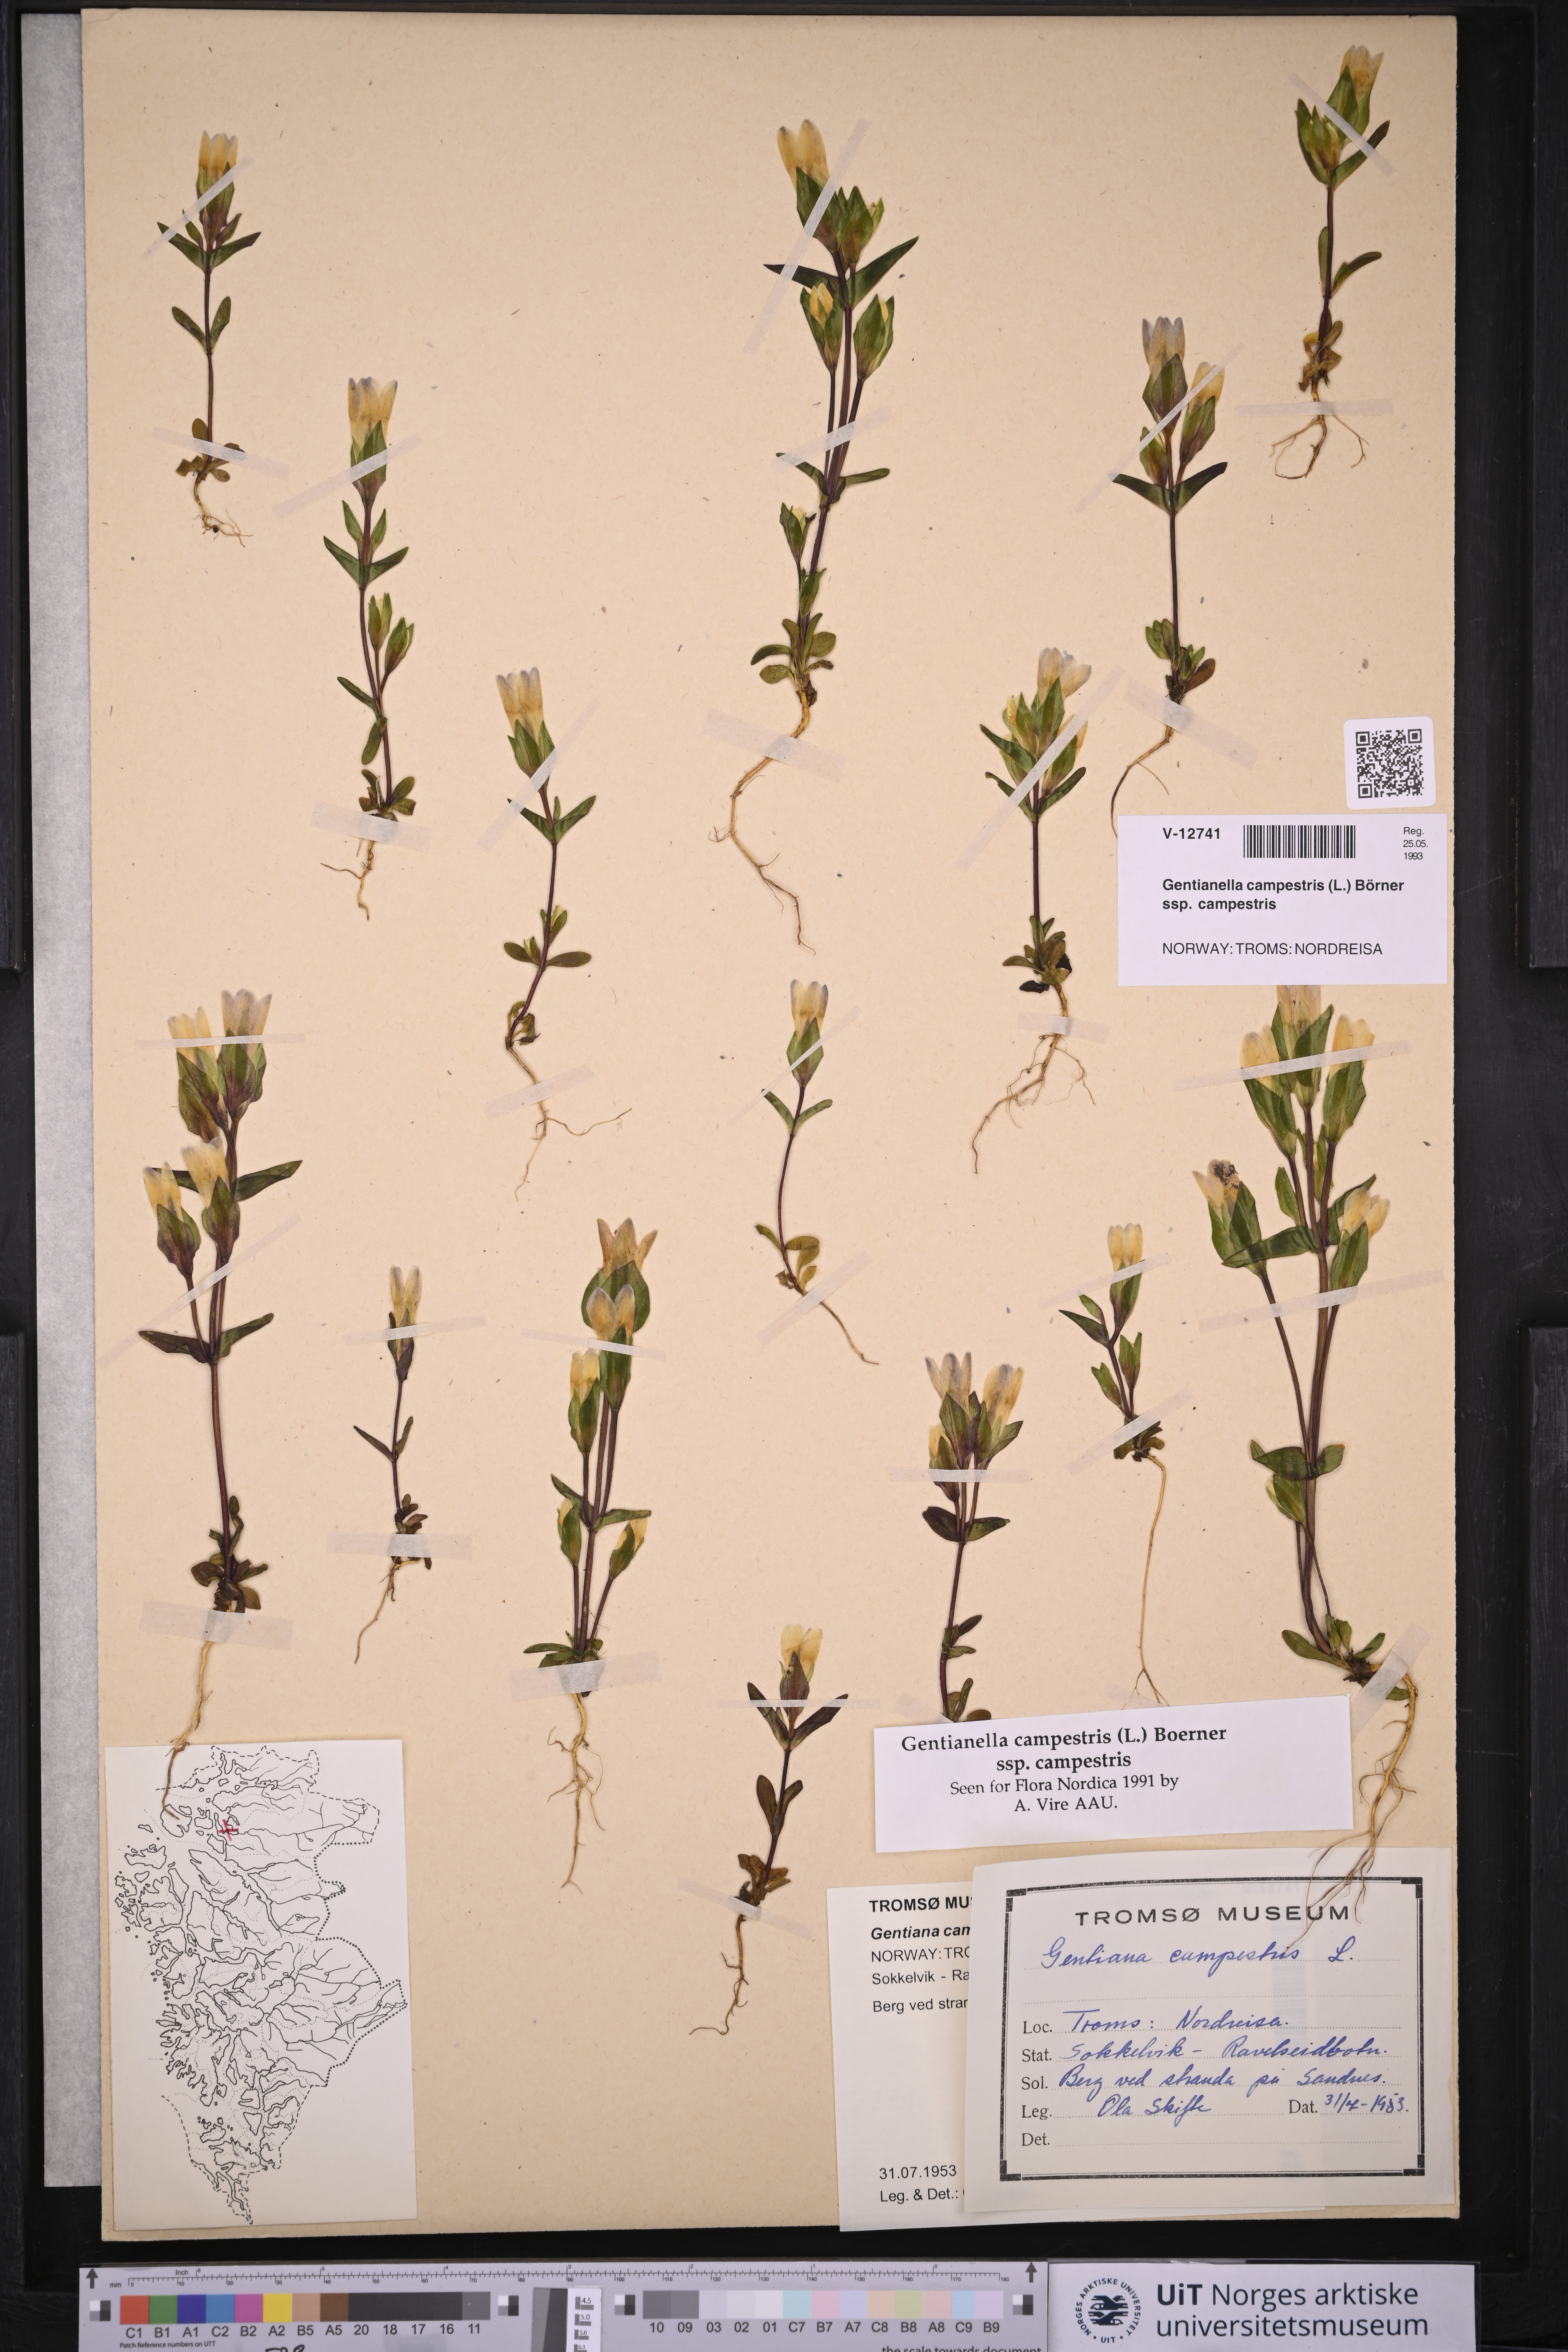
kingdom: Plantae
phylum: Tracheophyta
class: Magnoliopsida
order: Gentianales
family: Gentianaceae
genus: Gentianella
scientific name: Gentianella campestris
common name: Field gentian
